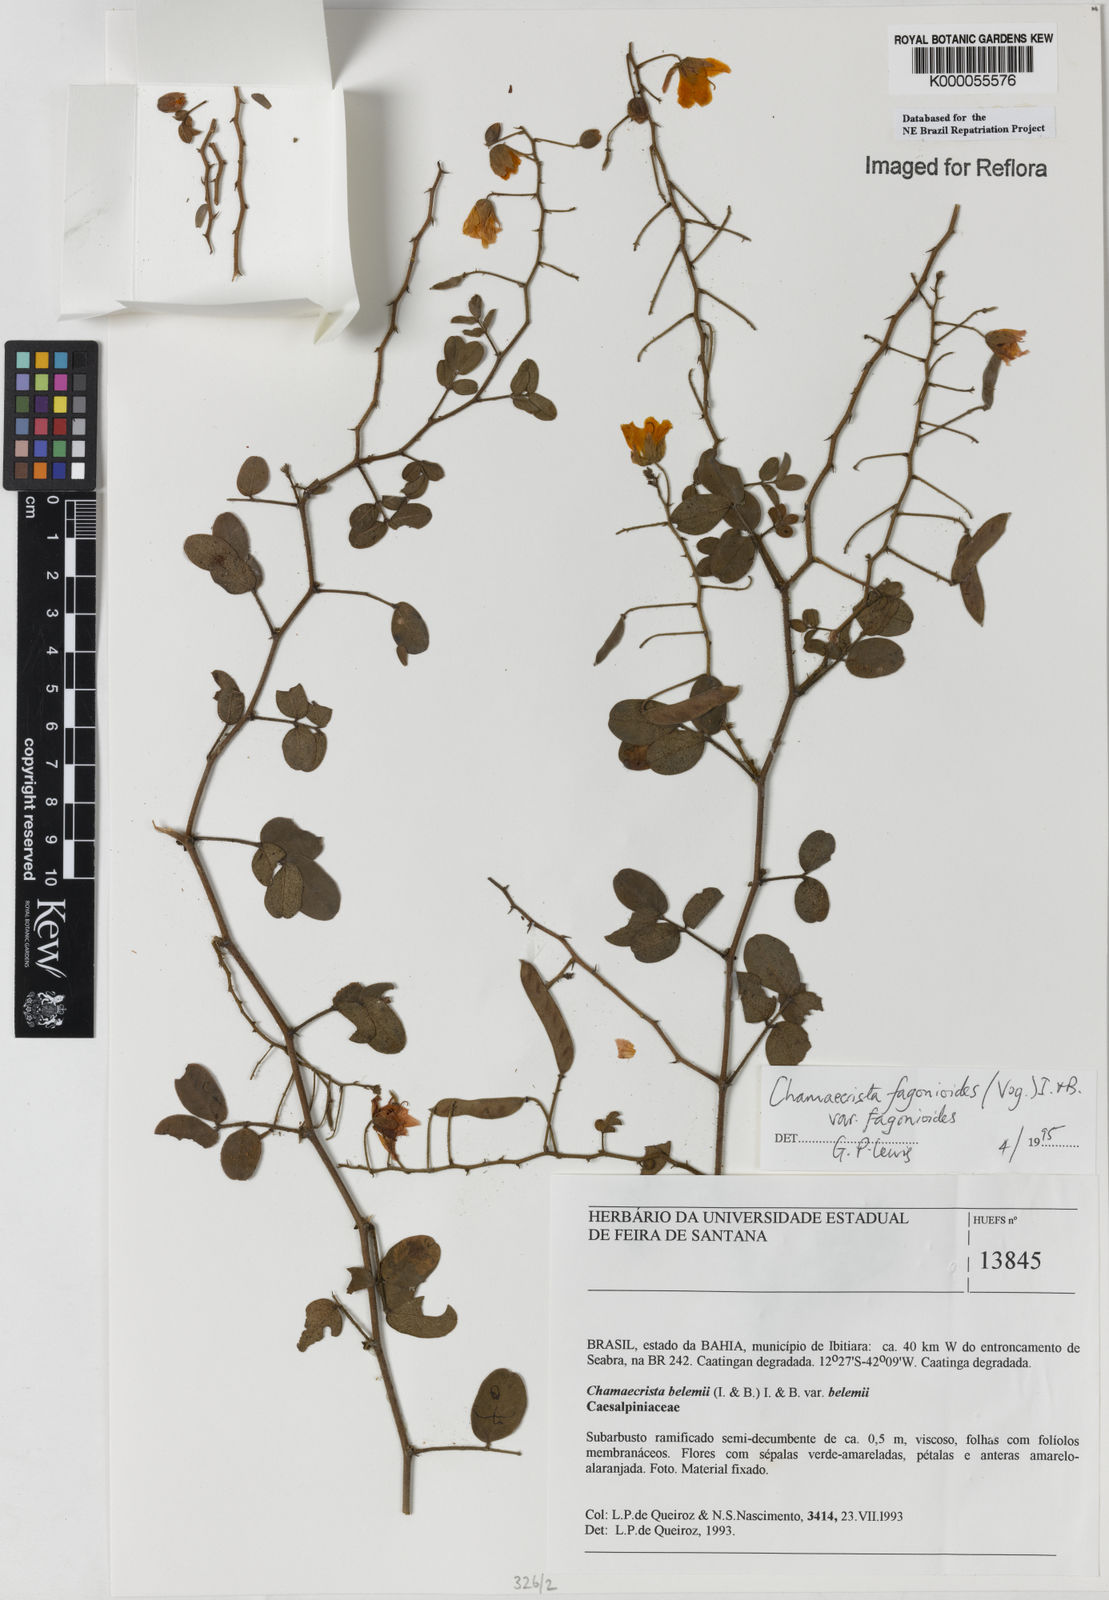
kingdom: Plantae
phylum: Tracheophyta
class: Magnoliopsida
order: Fabales
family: Fabaceae
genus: Chamaecrista
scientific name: Chamaecrista fagonioides
